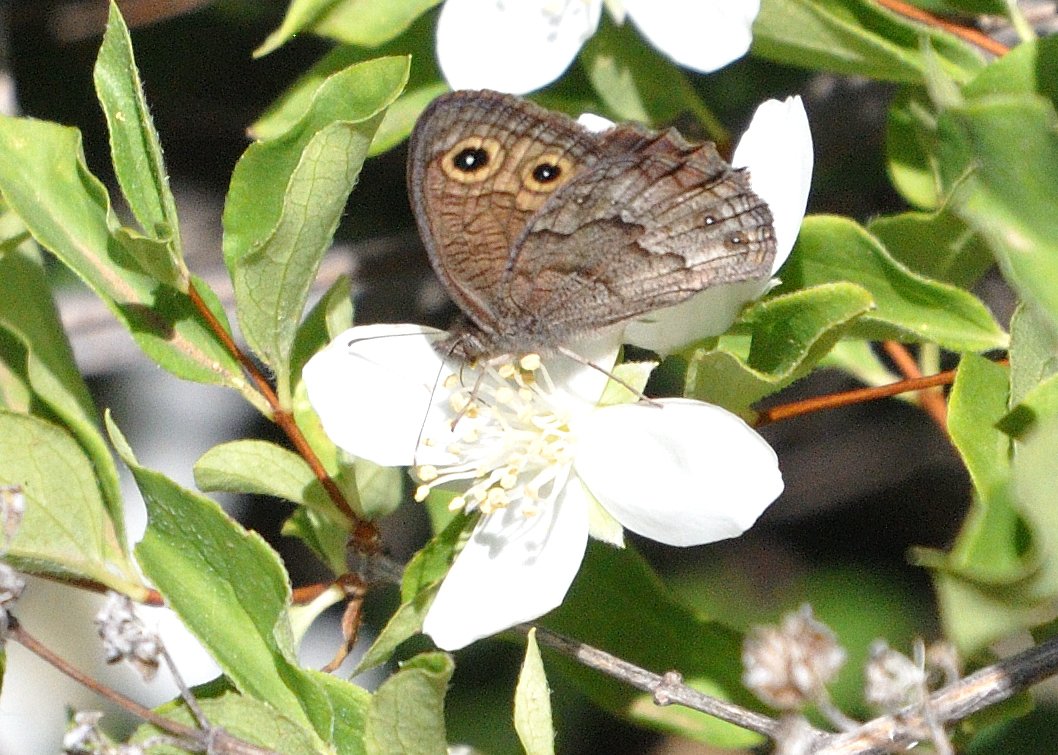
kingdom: Animalia
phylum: Arthropoda
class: Insecta
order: Lepidoptera
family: Nymphalidae
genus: Cercyonis
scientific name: Cercyonis sthenele
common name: Great Basin Wood-Nymph
